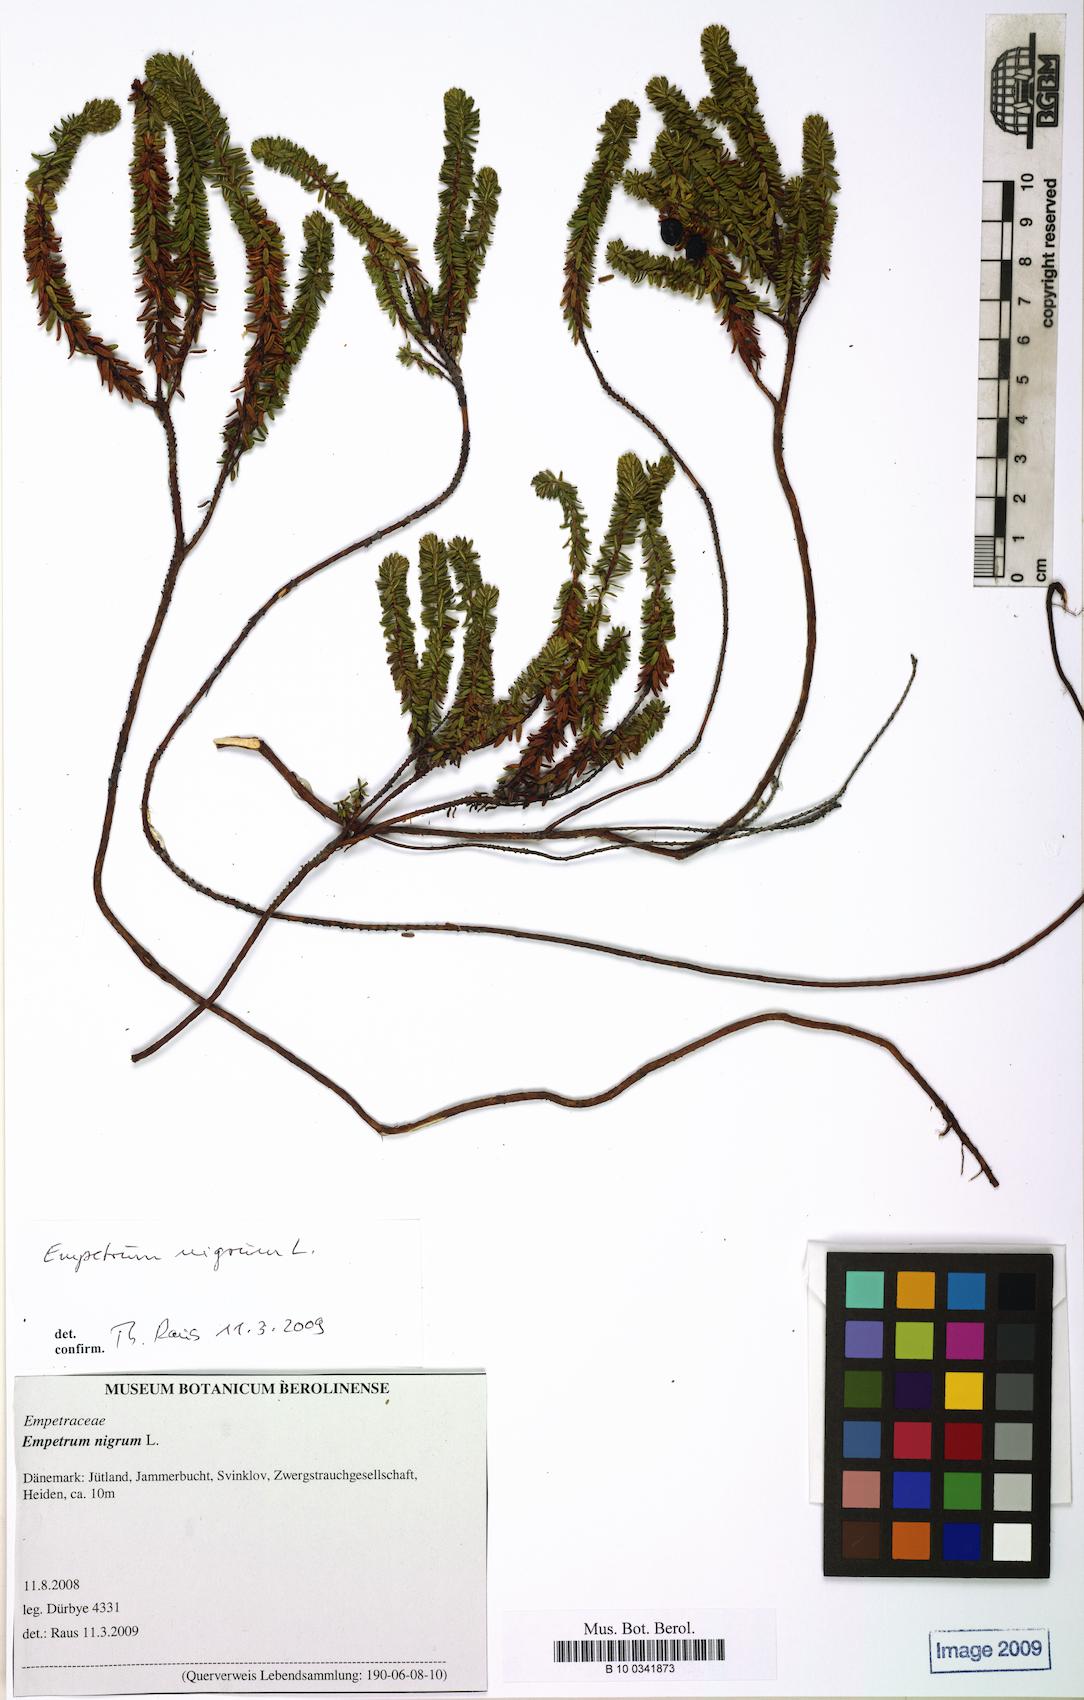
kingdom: Plantae
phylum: Tracheophyta
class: Magnoliopsida
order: Ericales
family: Ericaceae
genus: Empetrum
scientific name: Empetrum nigrum
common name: Black crowberry
